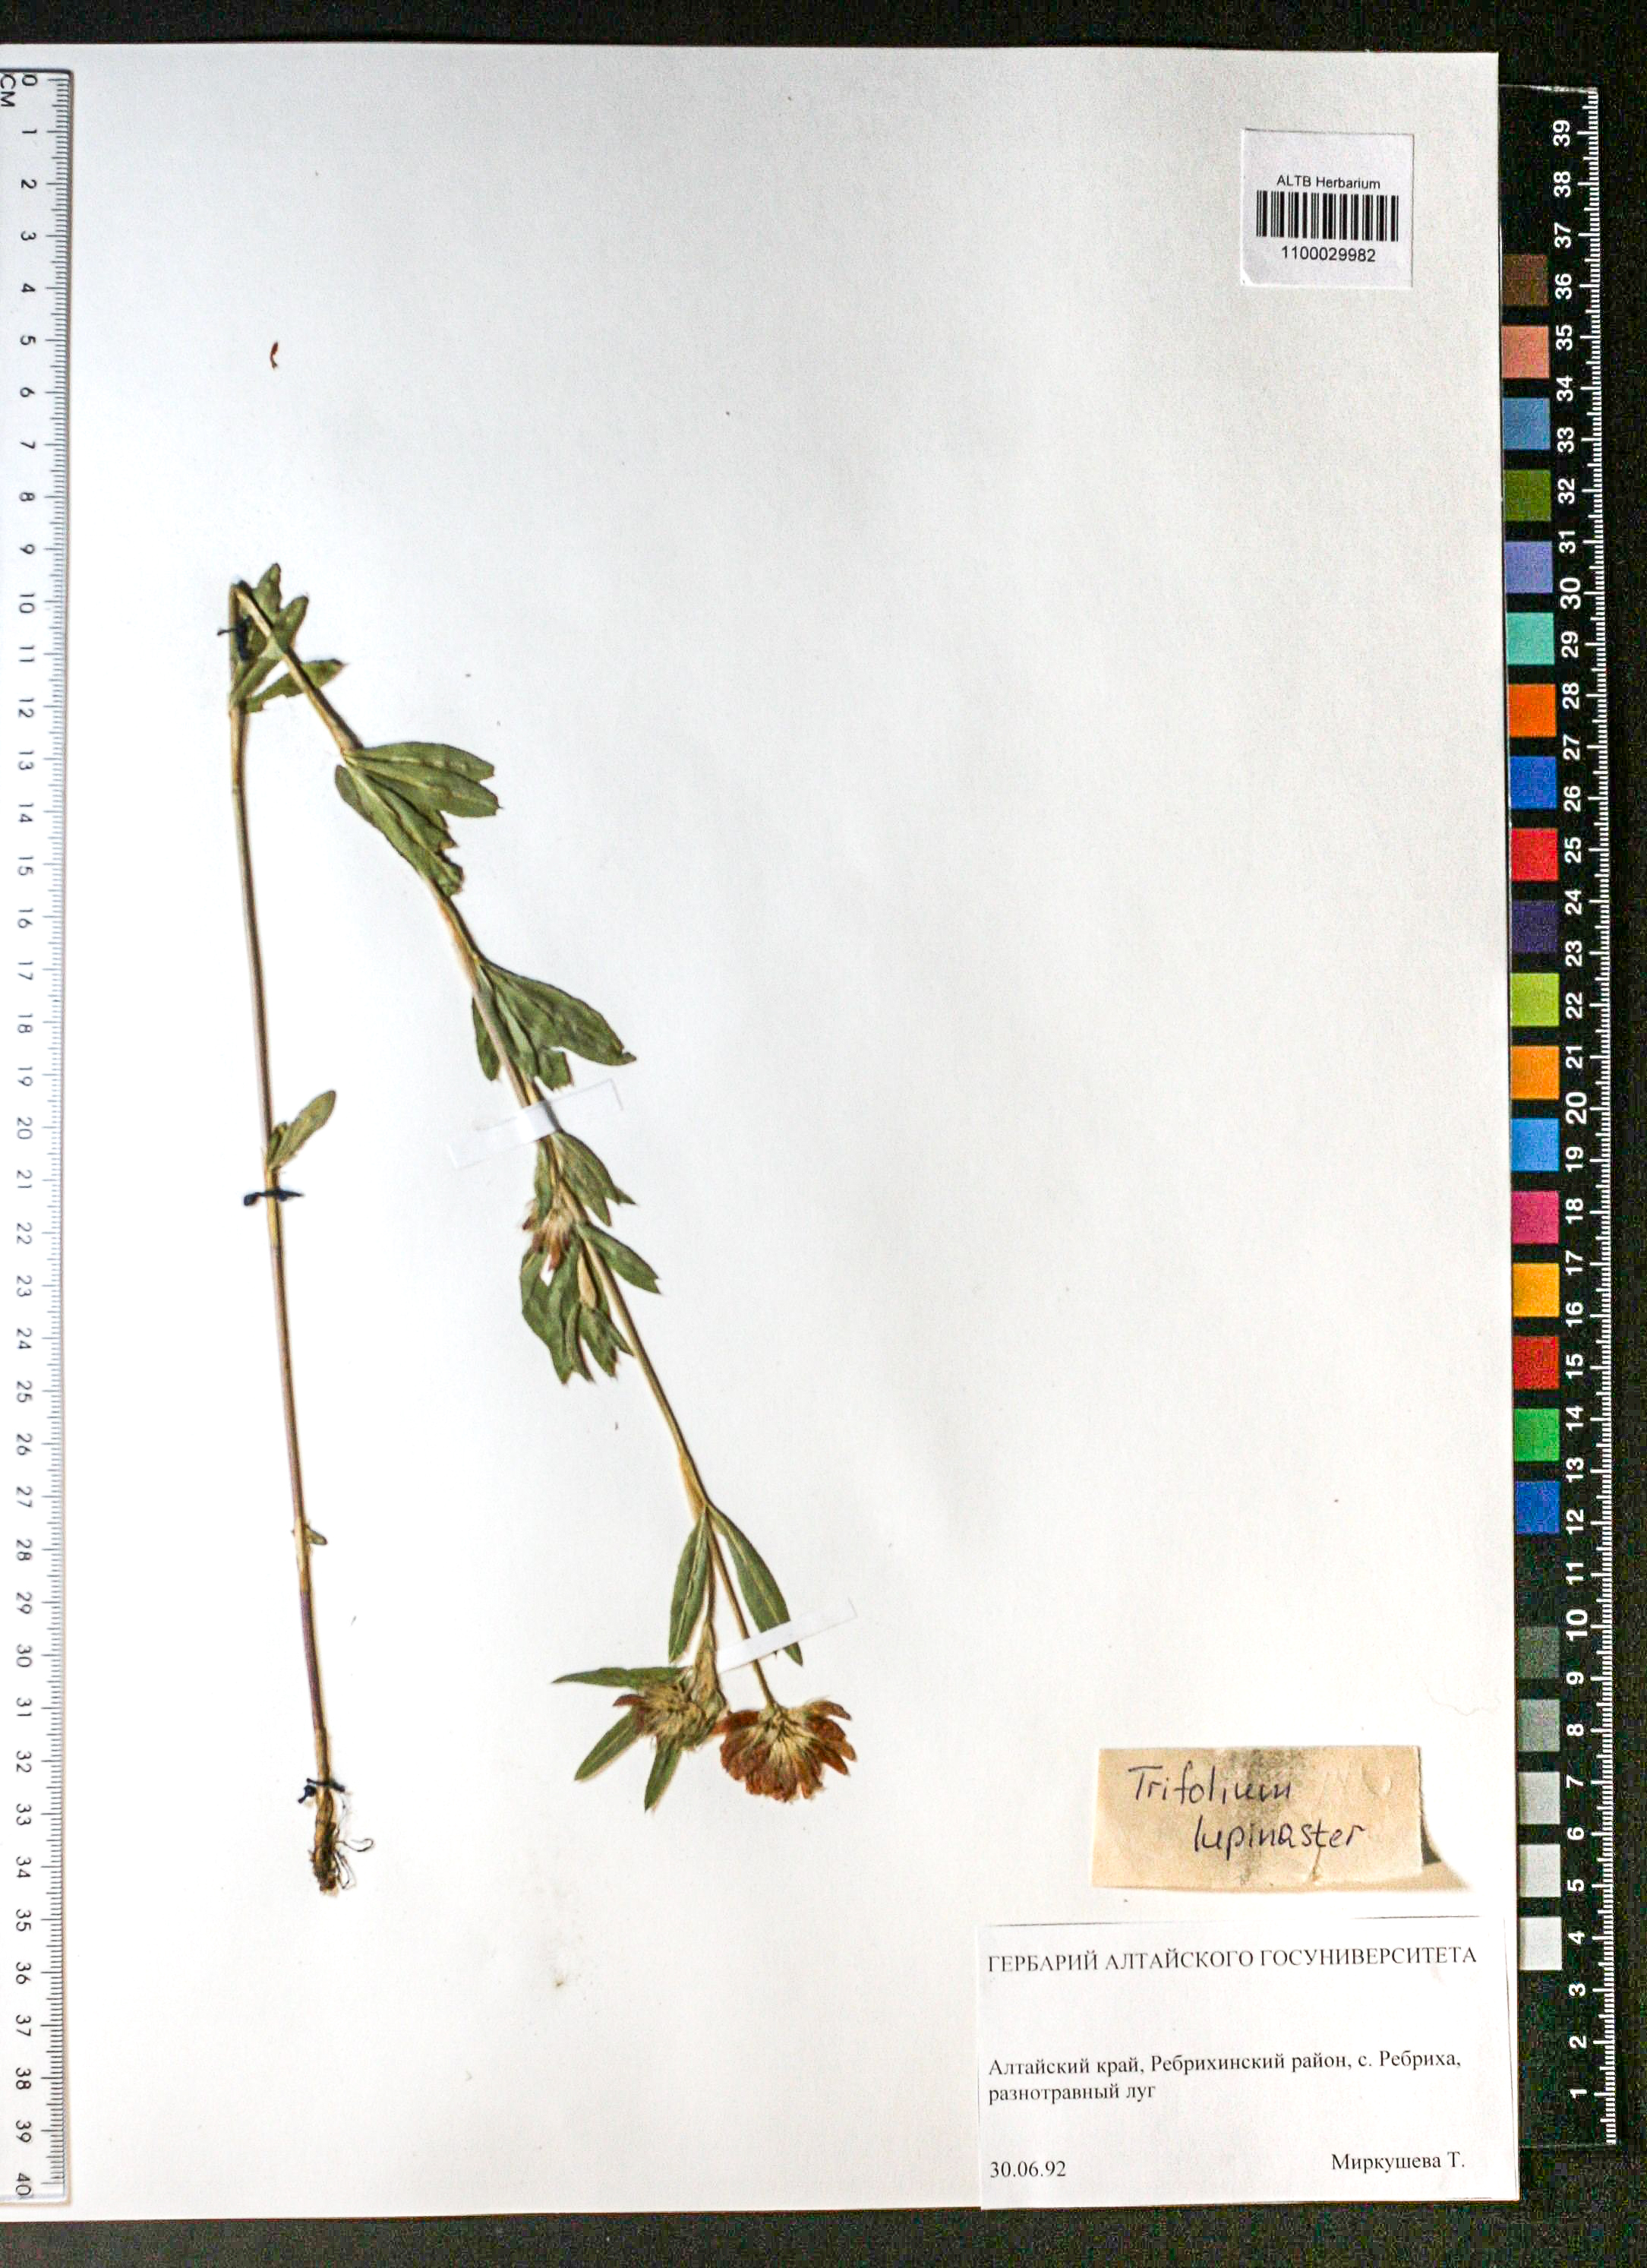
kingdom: Plantae
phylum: Tracheophyta
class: Magnoliopsida
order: Fabales
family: Fabaceae
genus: Trifolium
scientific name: Trifolium lupinaster
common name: Lupine clover
